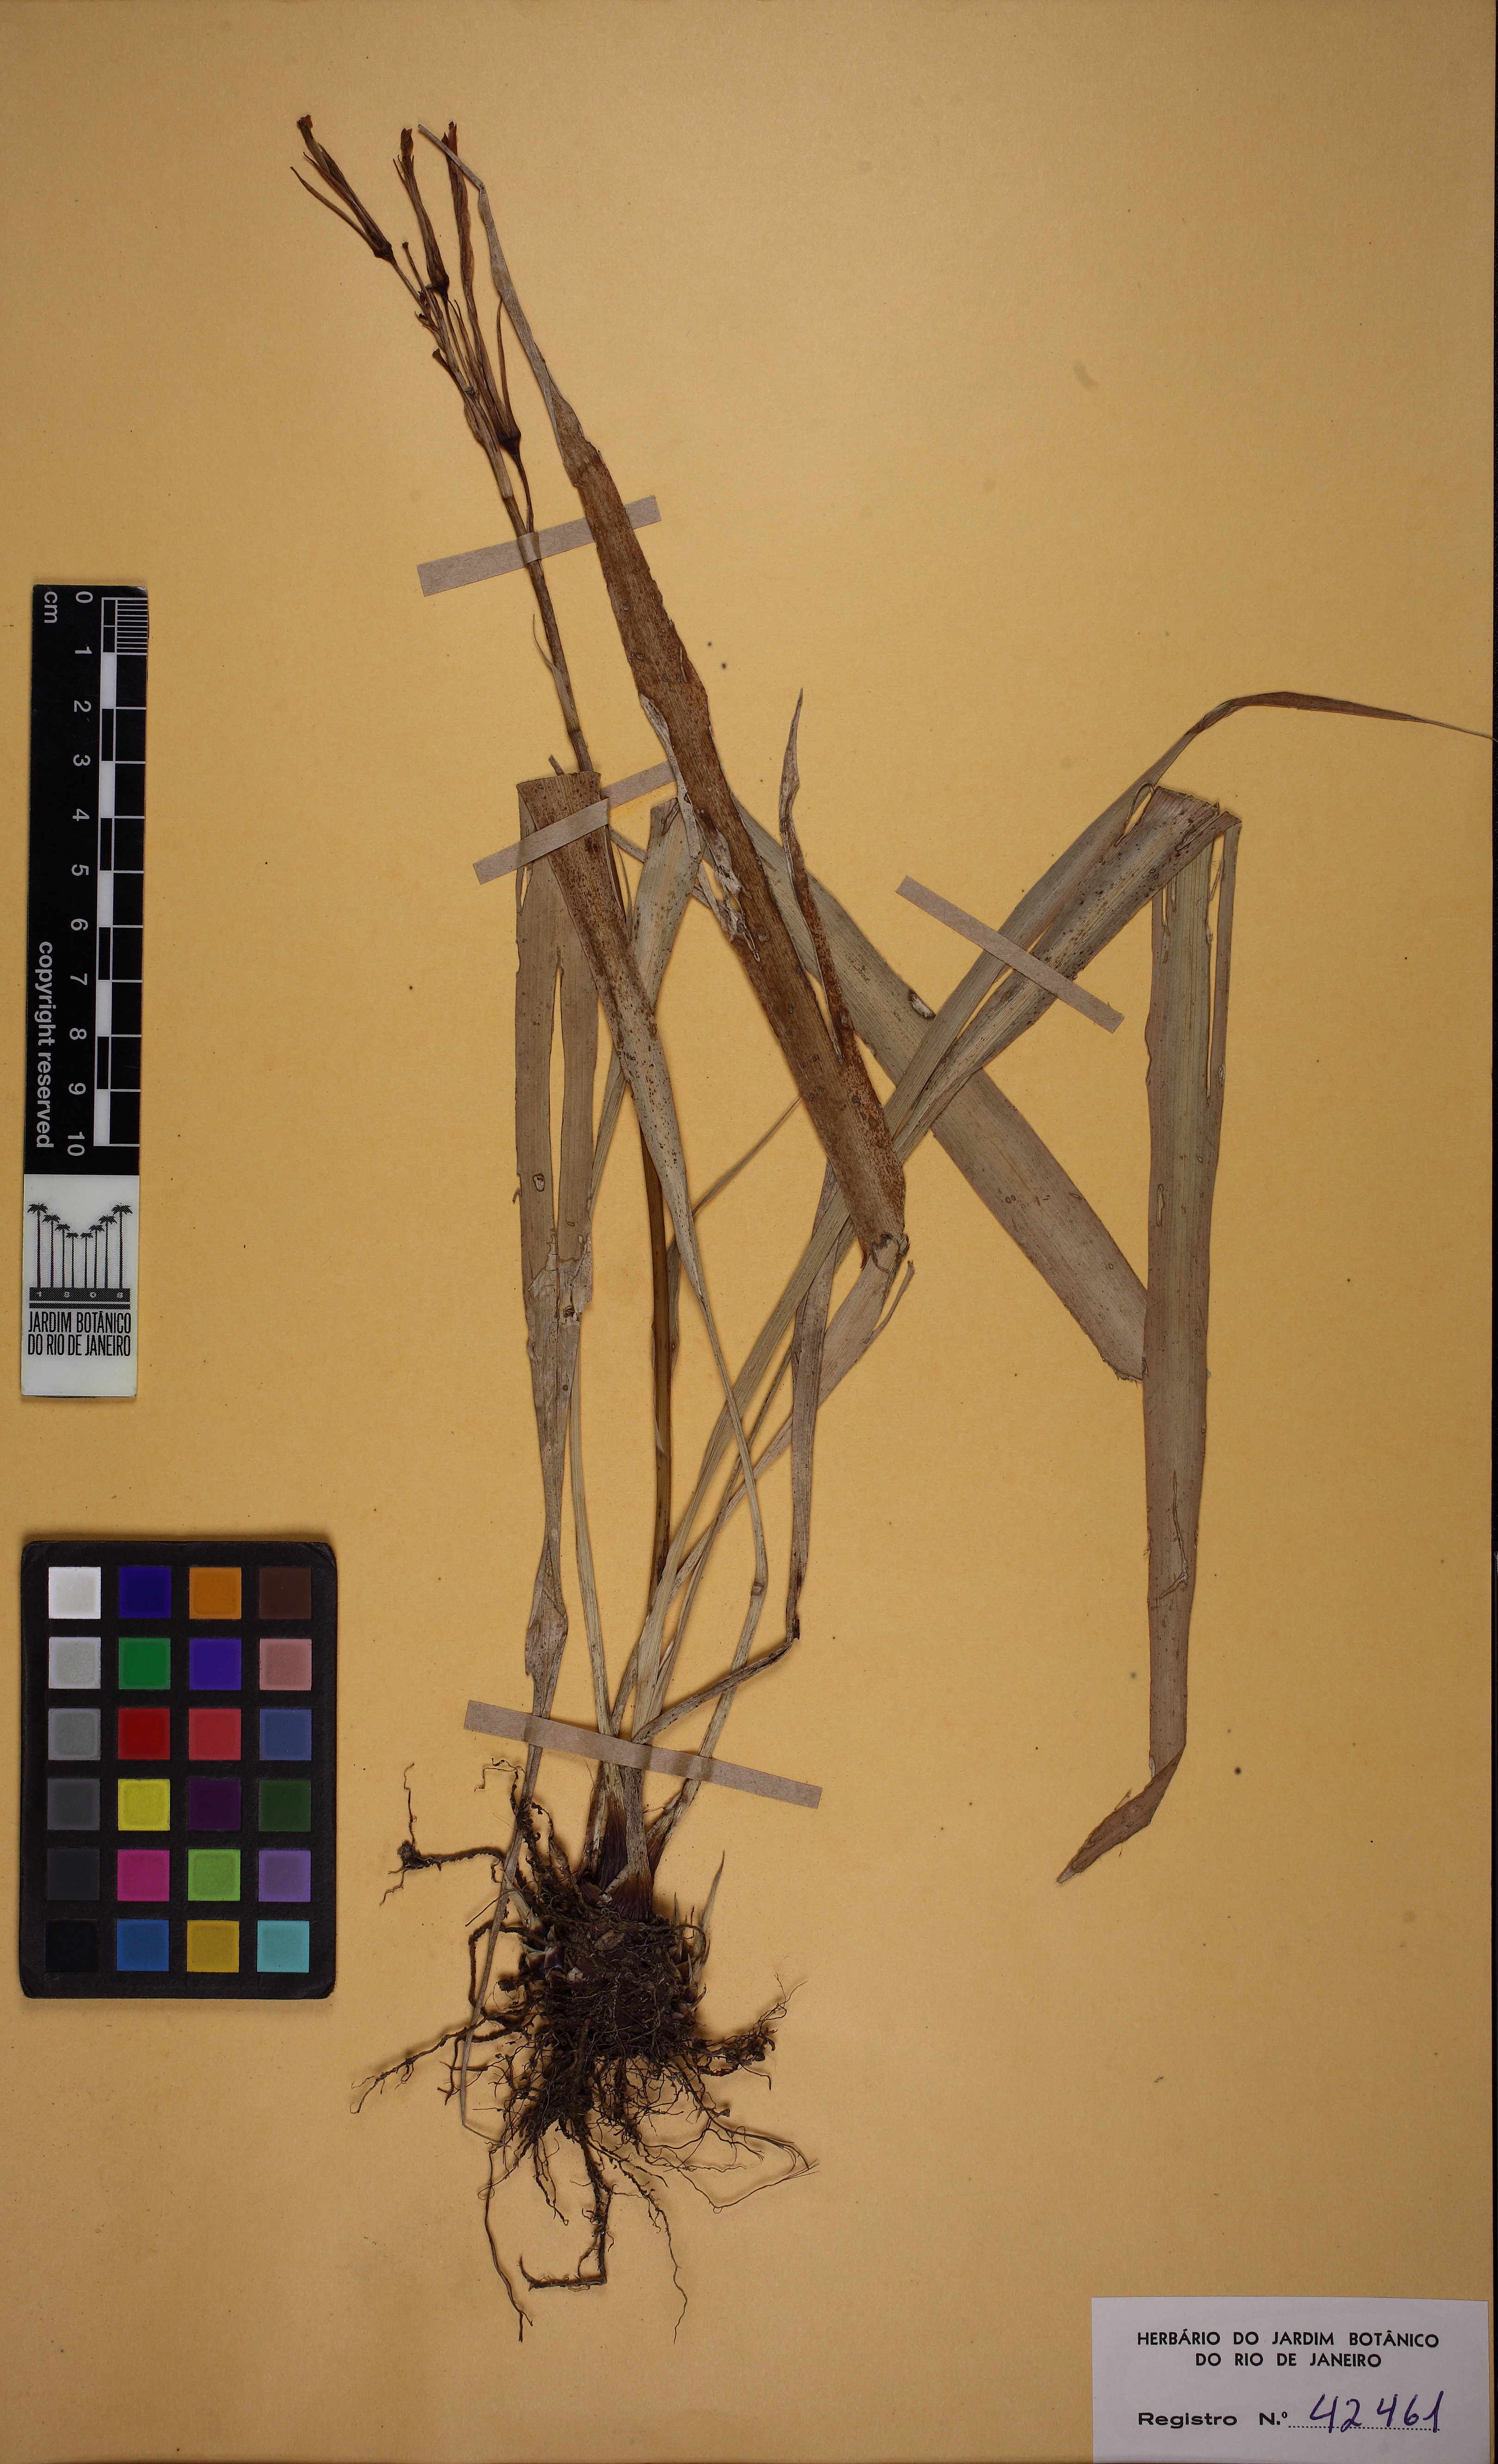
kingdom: Plantae
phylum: Tracheophyta
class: Liliopsida
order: Poales
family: Bromeliaceae
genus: Pitcairnia
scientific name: Pitcairnia corcovadensis
